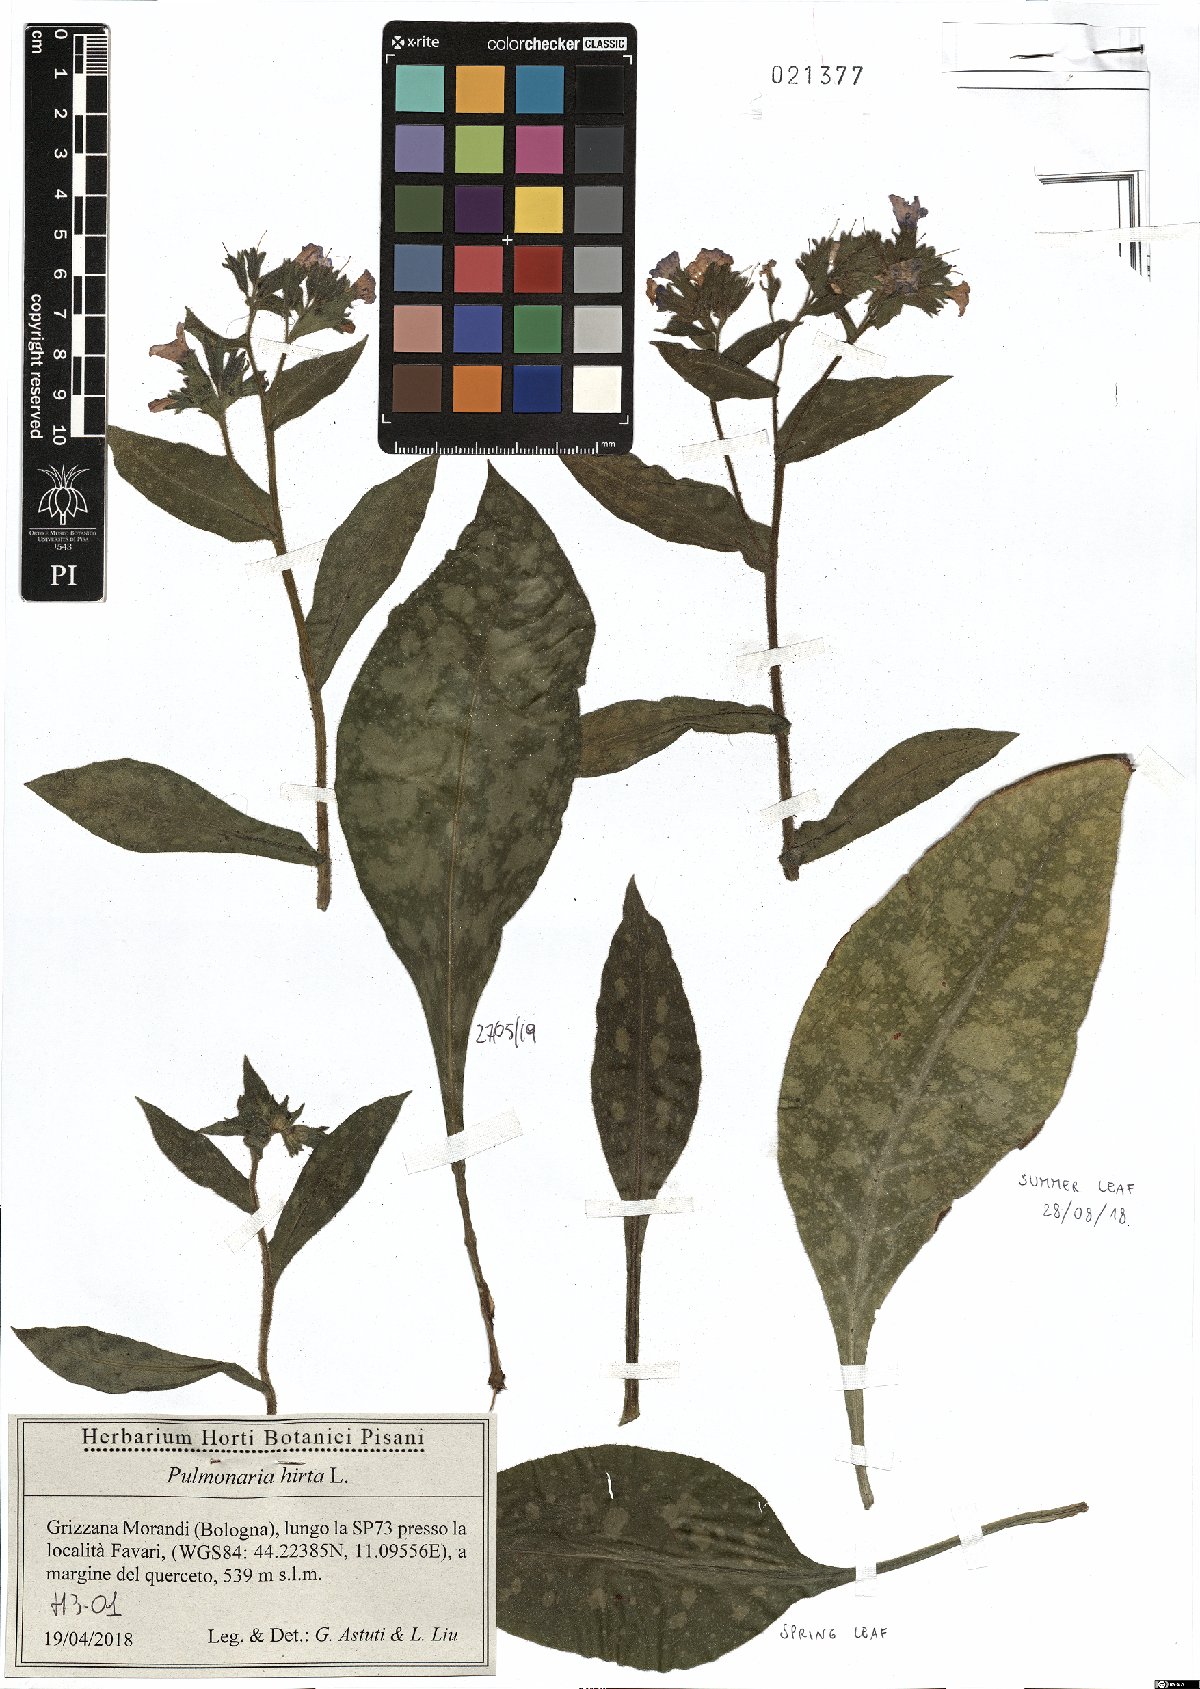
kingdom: Plantae
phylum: Tracheophyta
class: Magnoliopsida
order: Boraginales
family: Boraginaceae
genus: Pulmonaria
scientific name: Pulmonaria hirta
